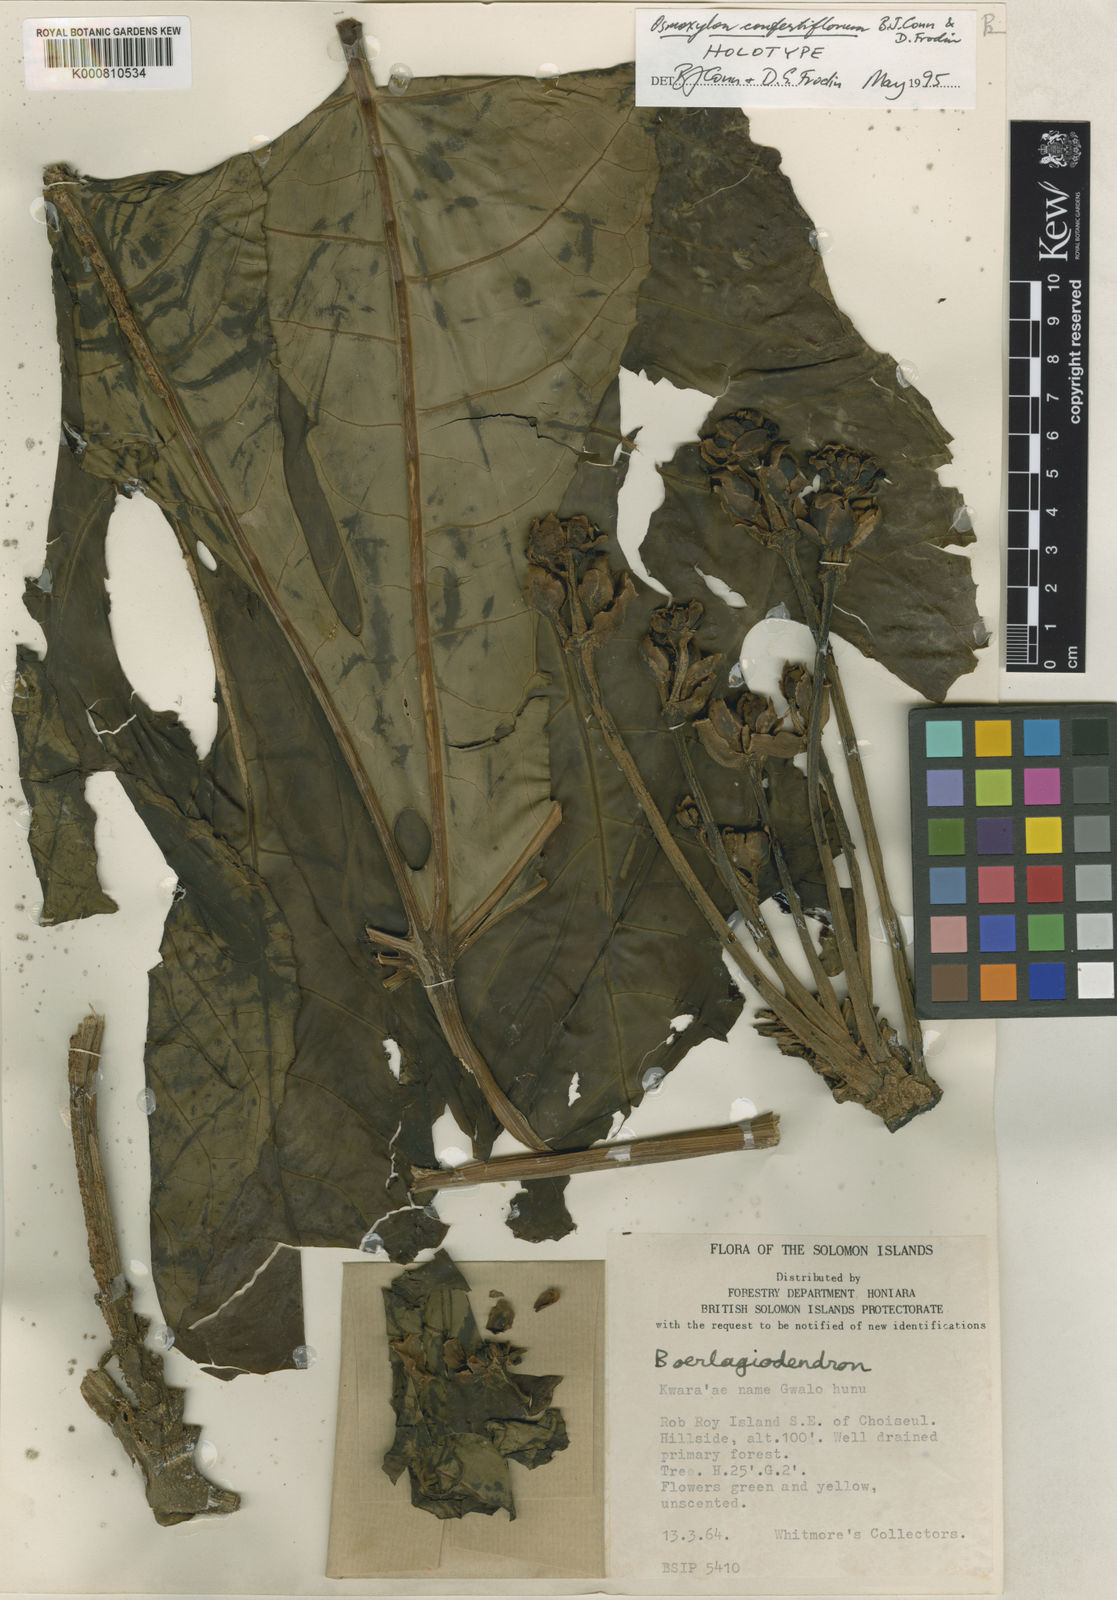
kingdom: Plantae
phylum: Tracheophyta
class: Magnoliopsida
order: Apiales
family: Araliaceae
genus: Osmoxylon
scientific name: Osmoxylon confertiflorum
